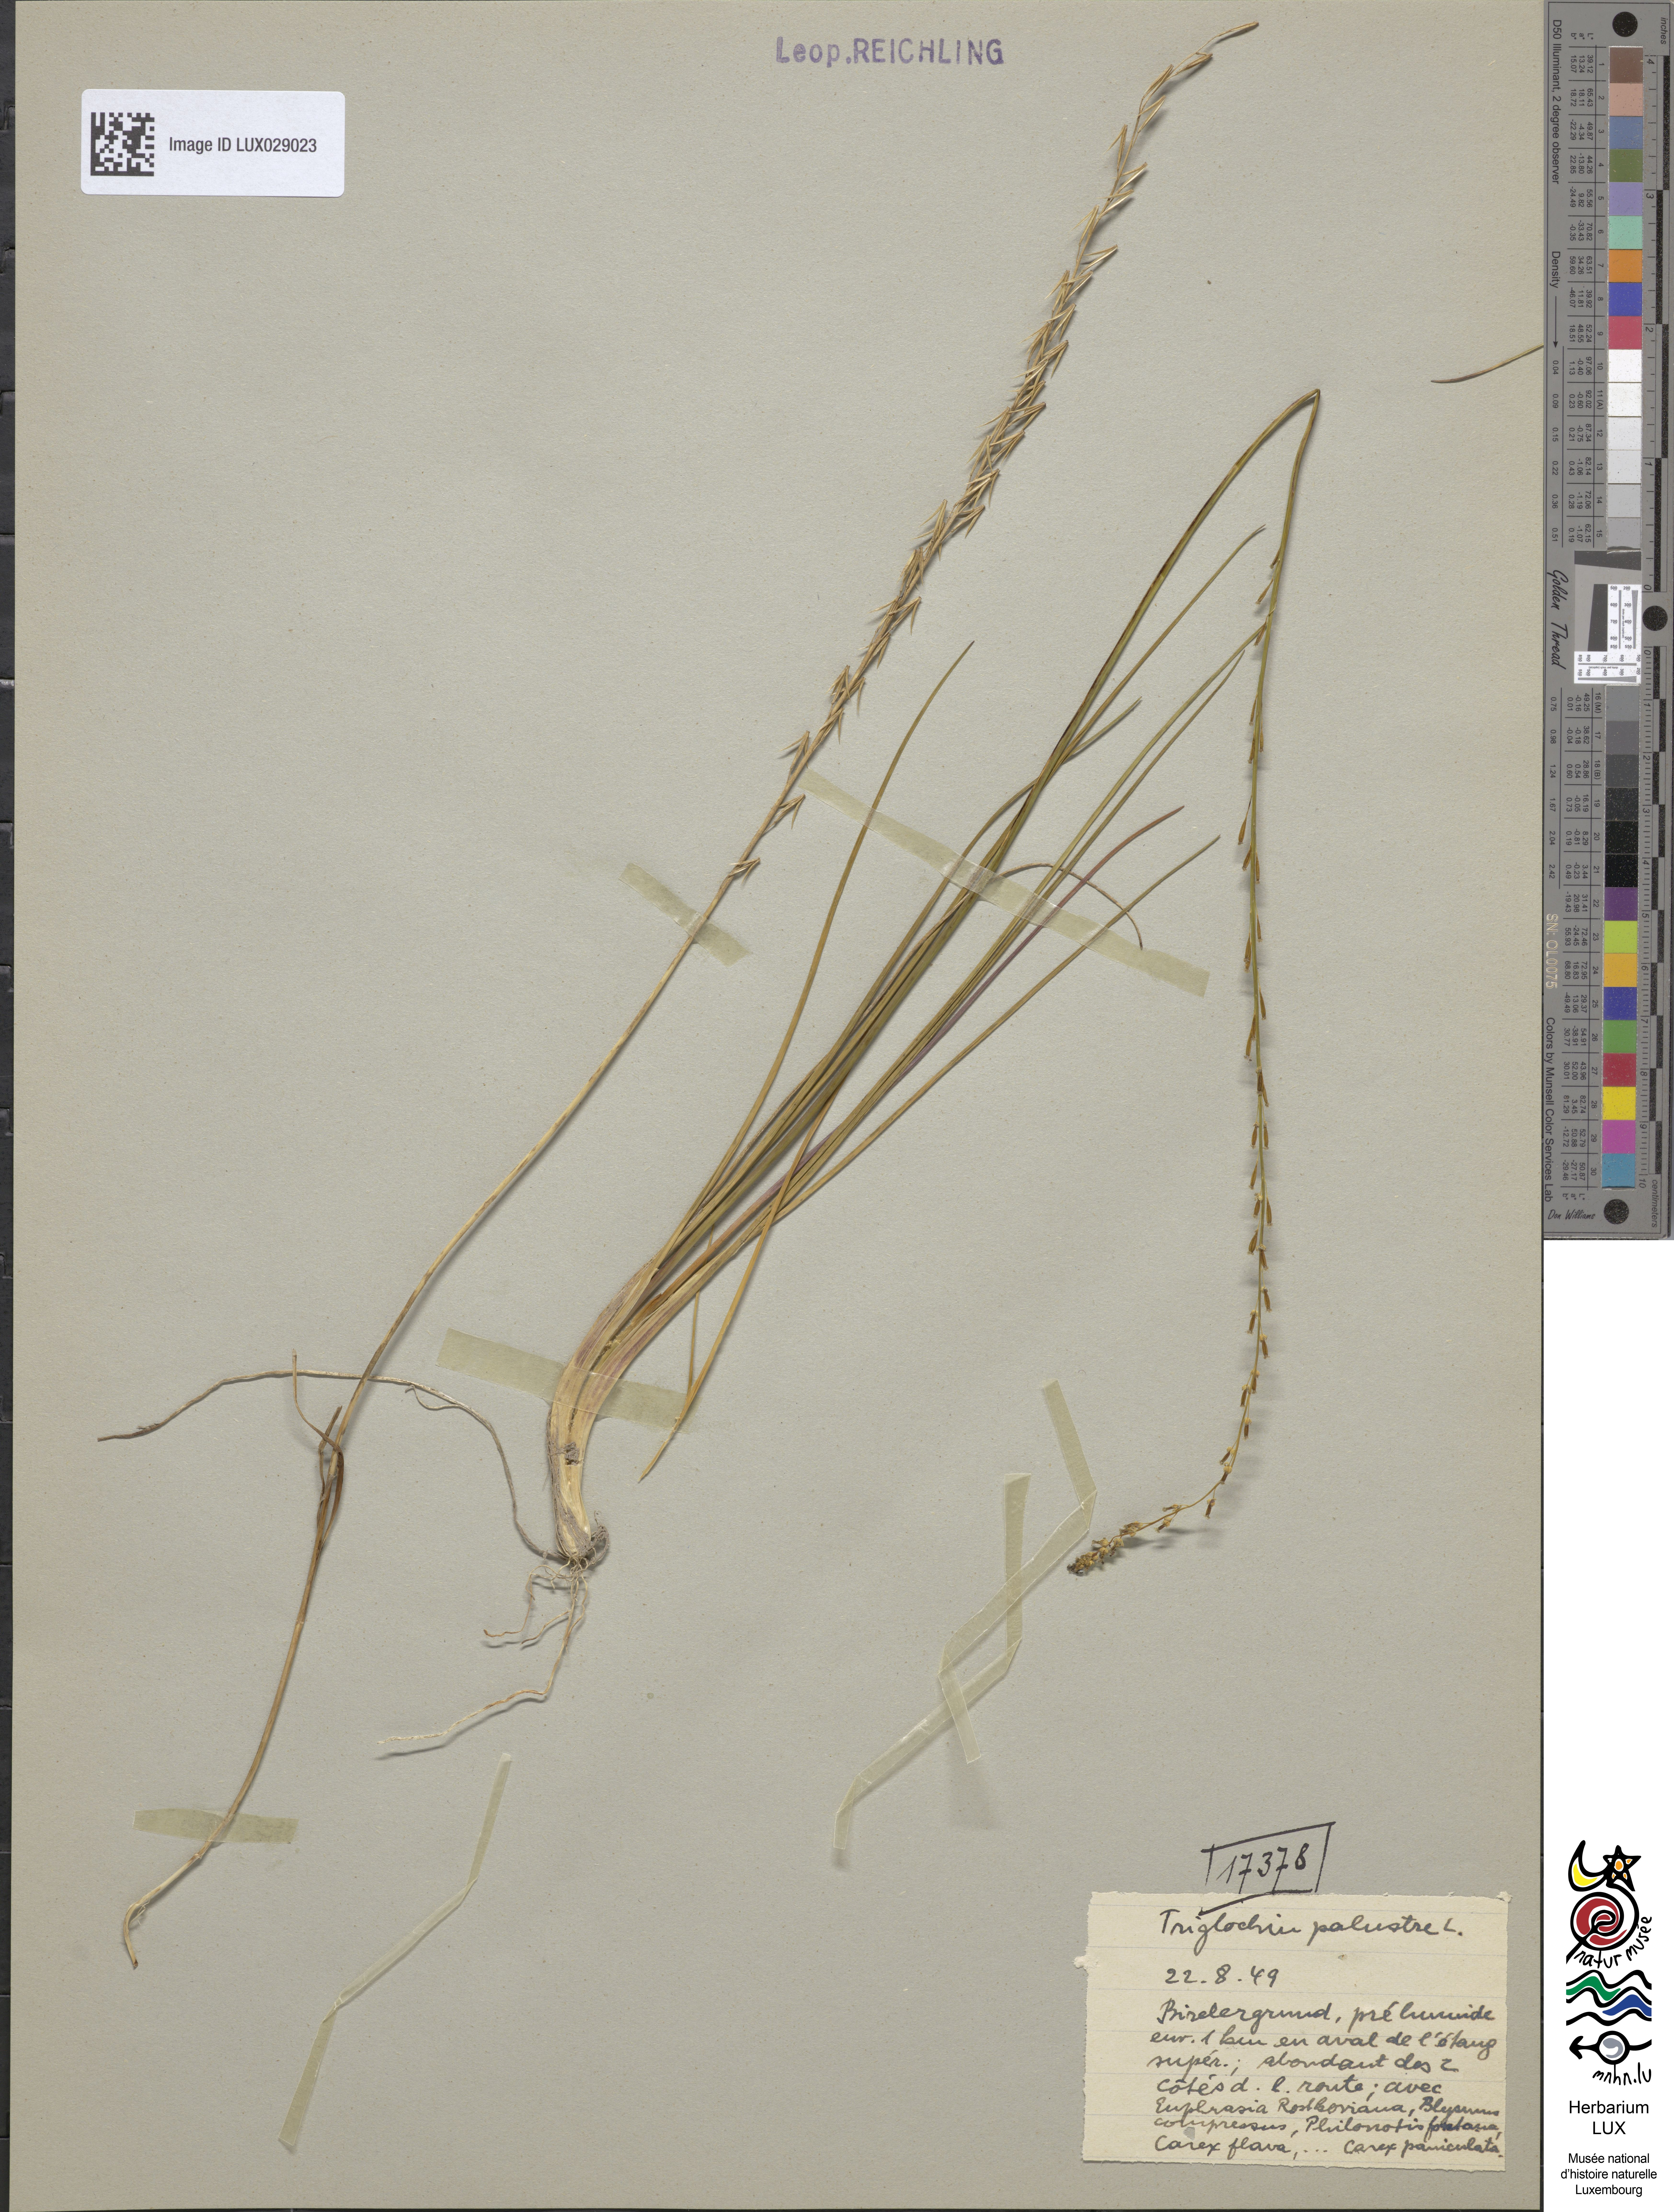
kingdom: Plantae
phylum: Tracheophyta
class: Liliopsida
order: Alismatales
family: Juncaginaceae
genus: Triglochin
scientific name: Triglochin palustris
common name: Marsh arrowgrass
